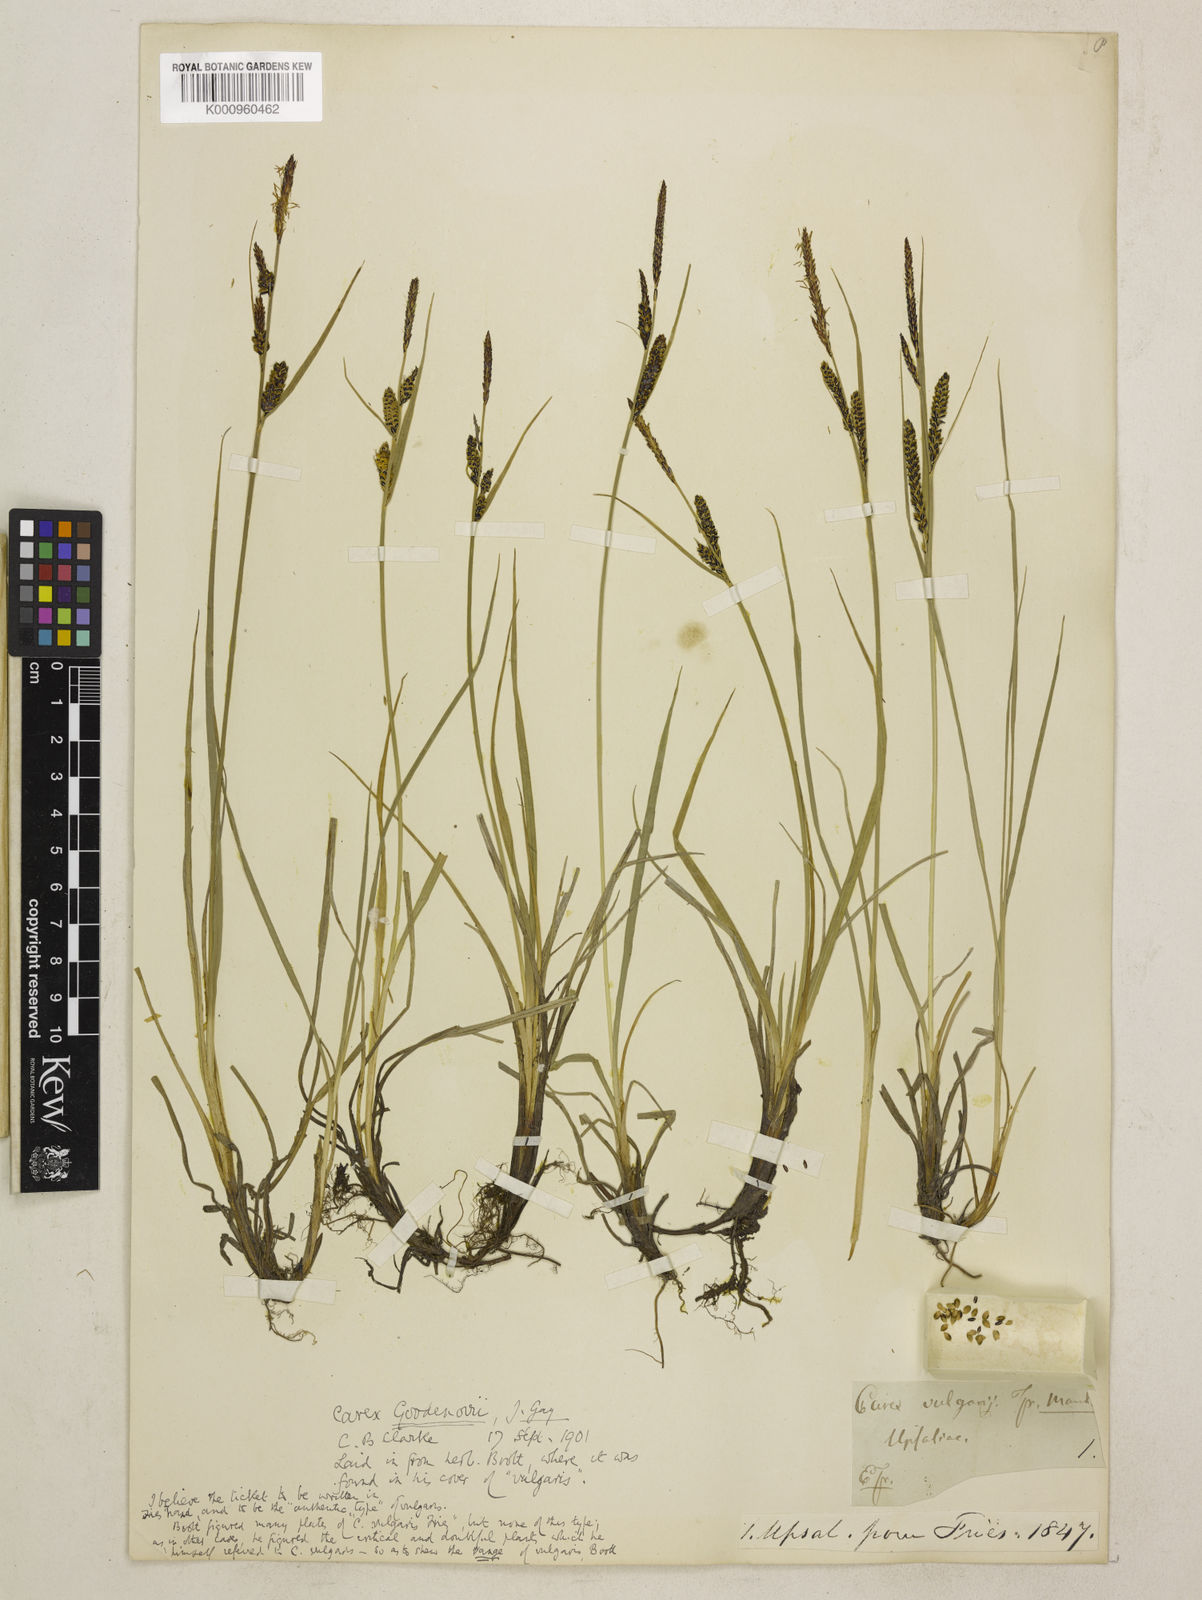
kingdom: Plantae
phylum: Tracheophyta
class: Liliopsida
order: Poales
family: Cyperaceae
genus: Carex
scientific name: Carex nigra
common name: Common sedge
